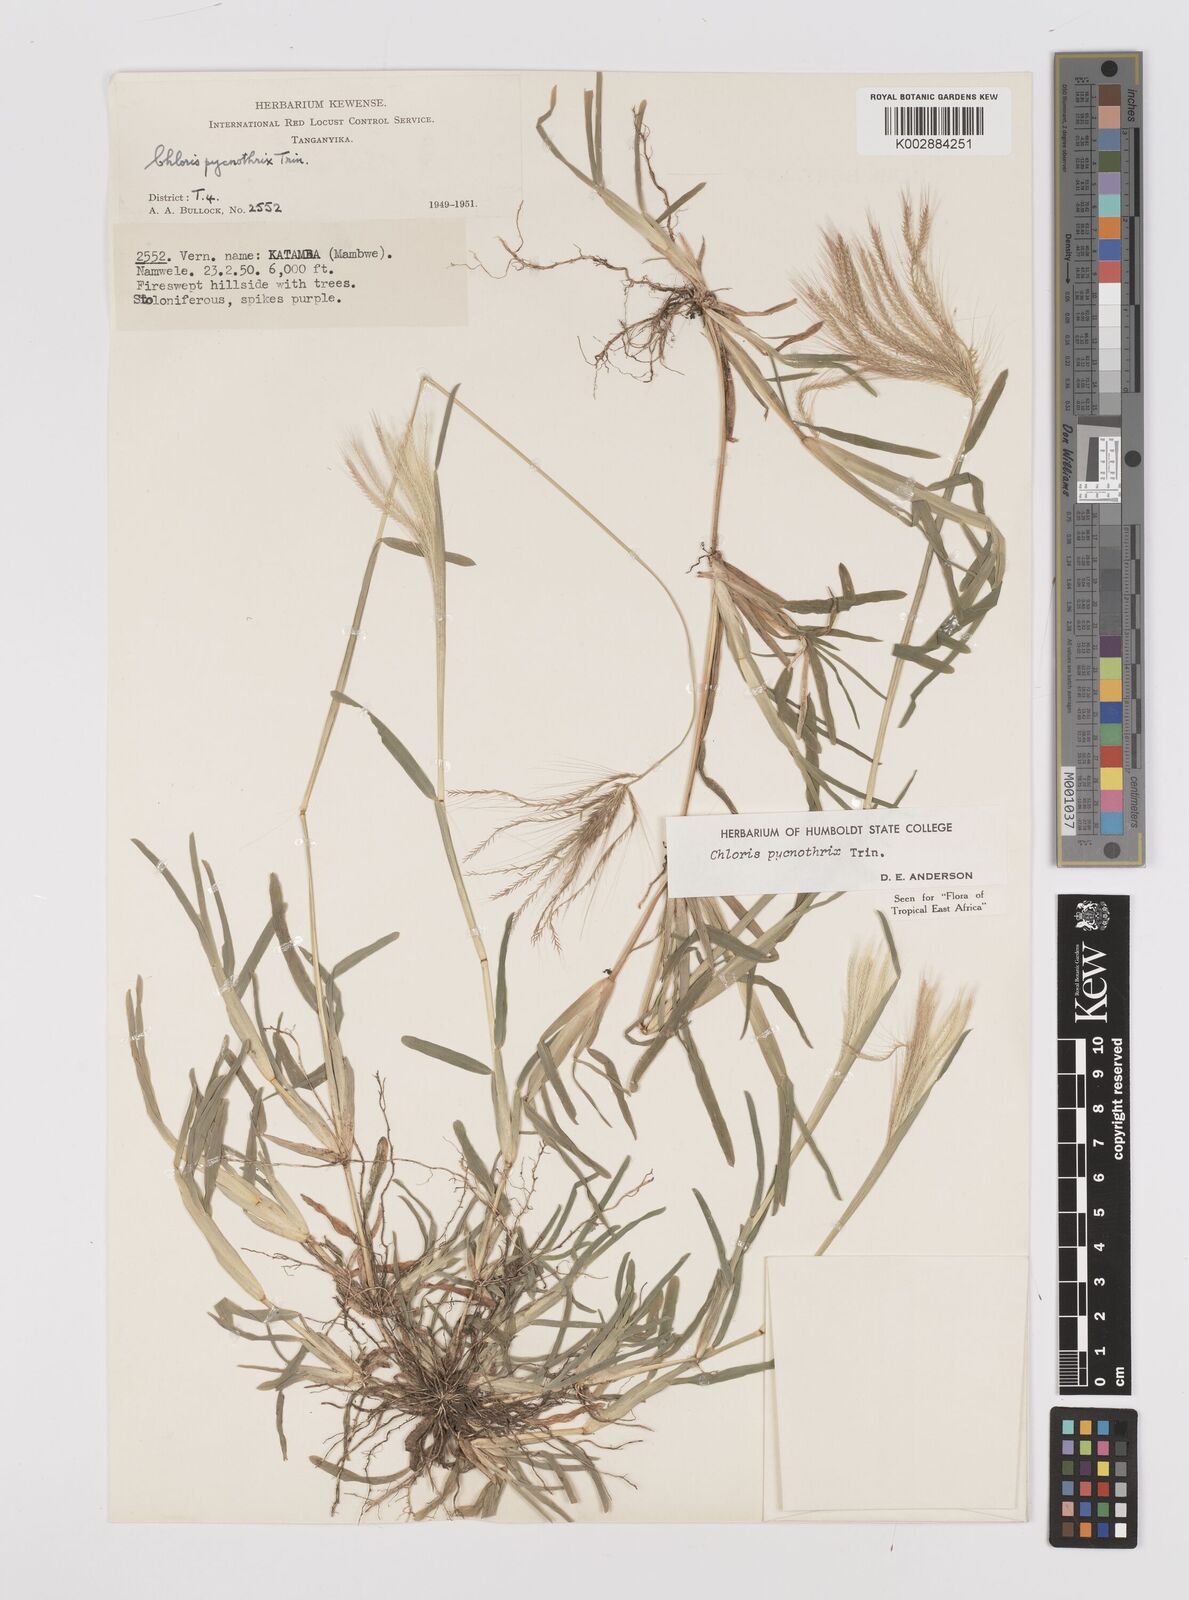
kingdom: Plantae
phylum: Tracheophyta
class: Liliopsida
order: Poales
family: Poaceae
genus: Chloris
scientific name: Chloris pycnothrix
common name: Spiderweb chloris
